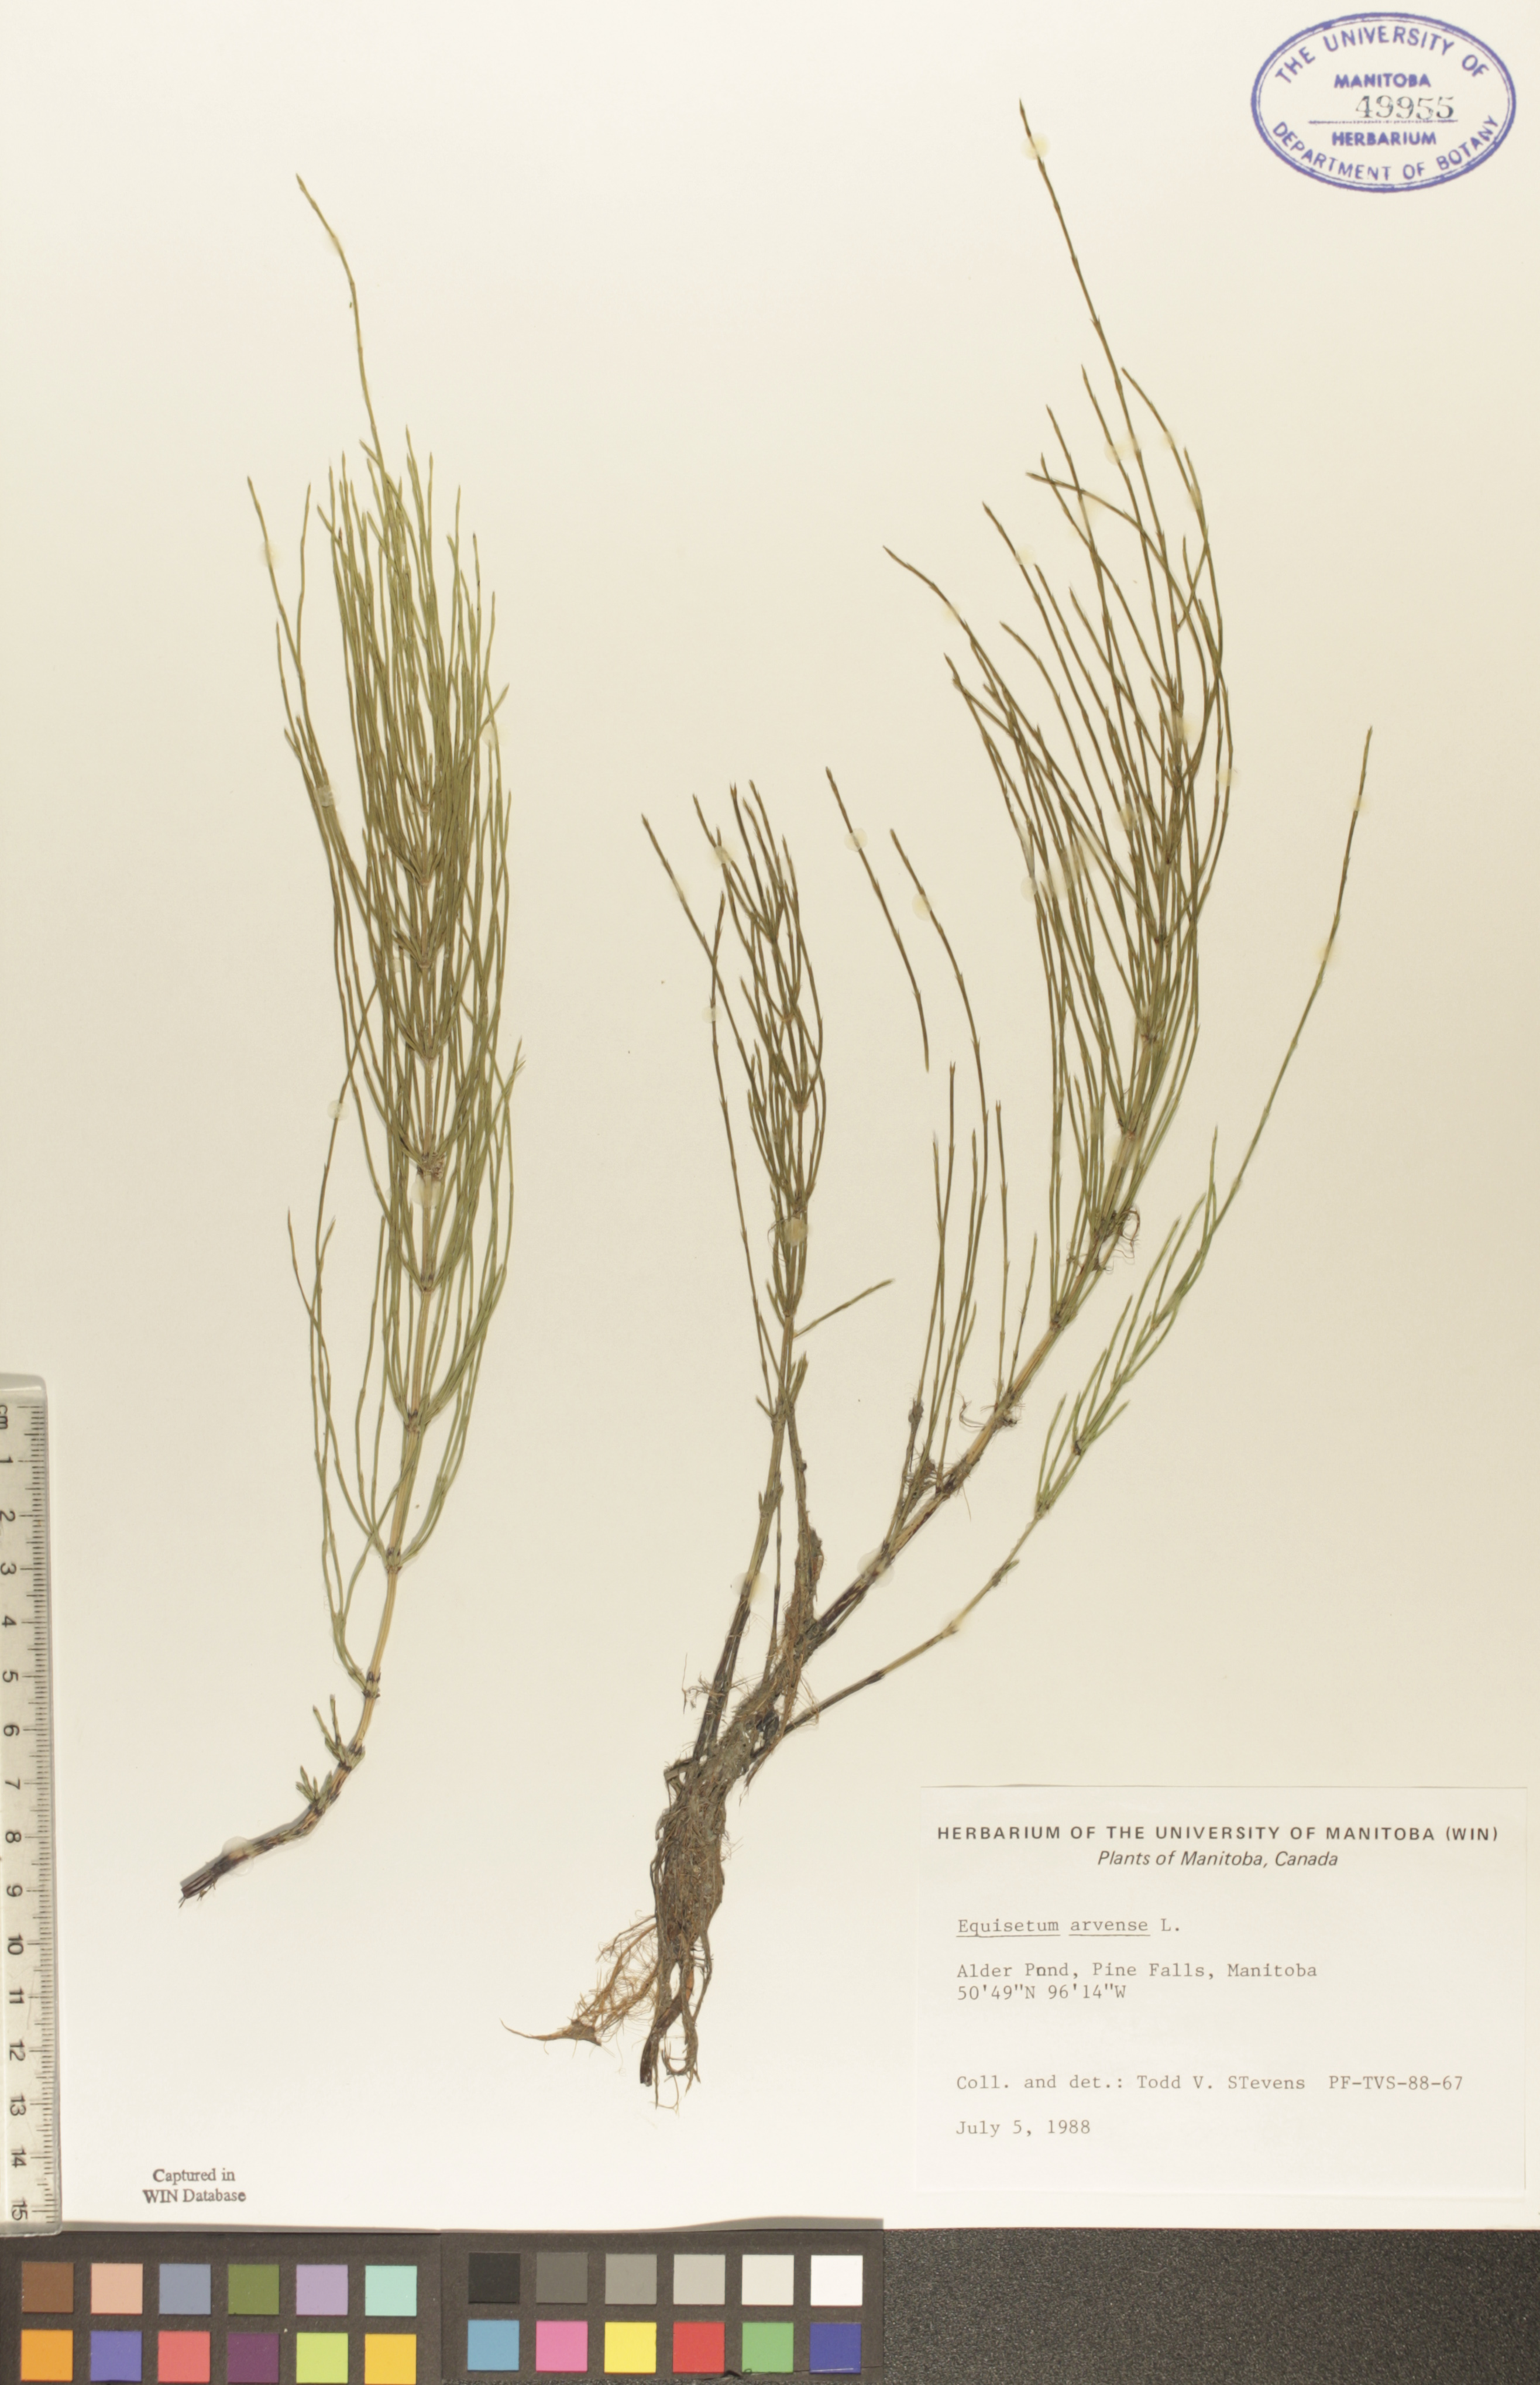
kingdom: Plantae
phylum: Tracheophyta
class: Polypodiopsida
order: Equisetales
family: Equisetaceae
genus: Equisetum
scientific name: Equisetum arvense
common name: Field horsetail
